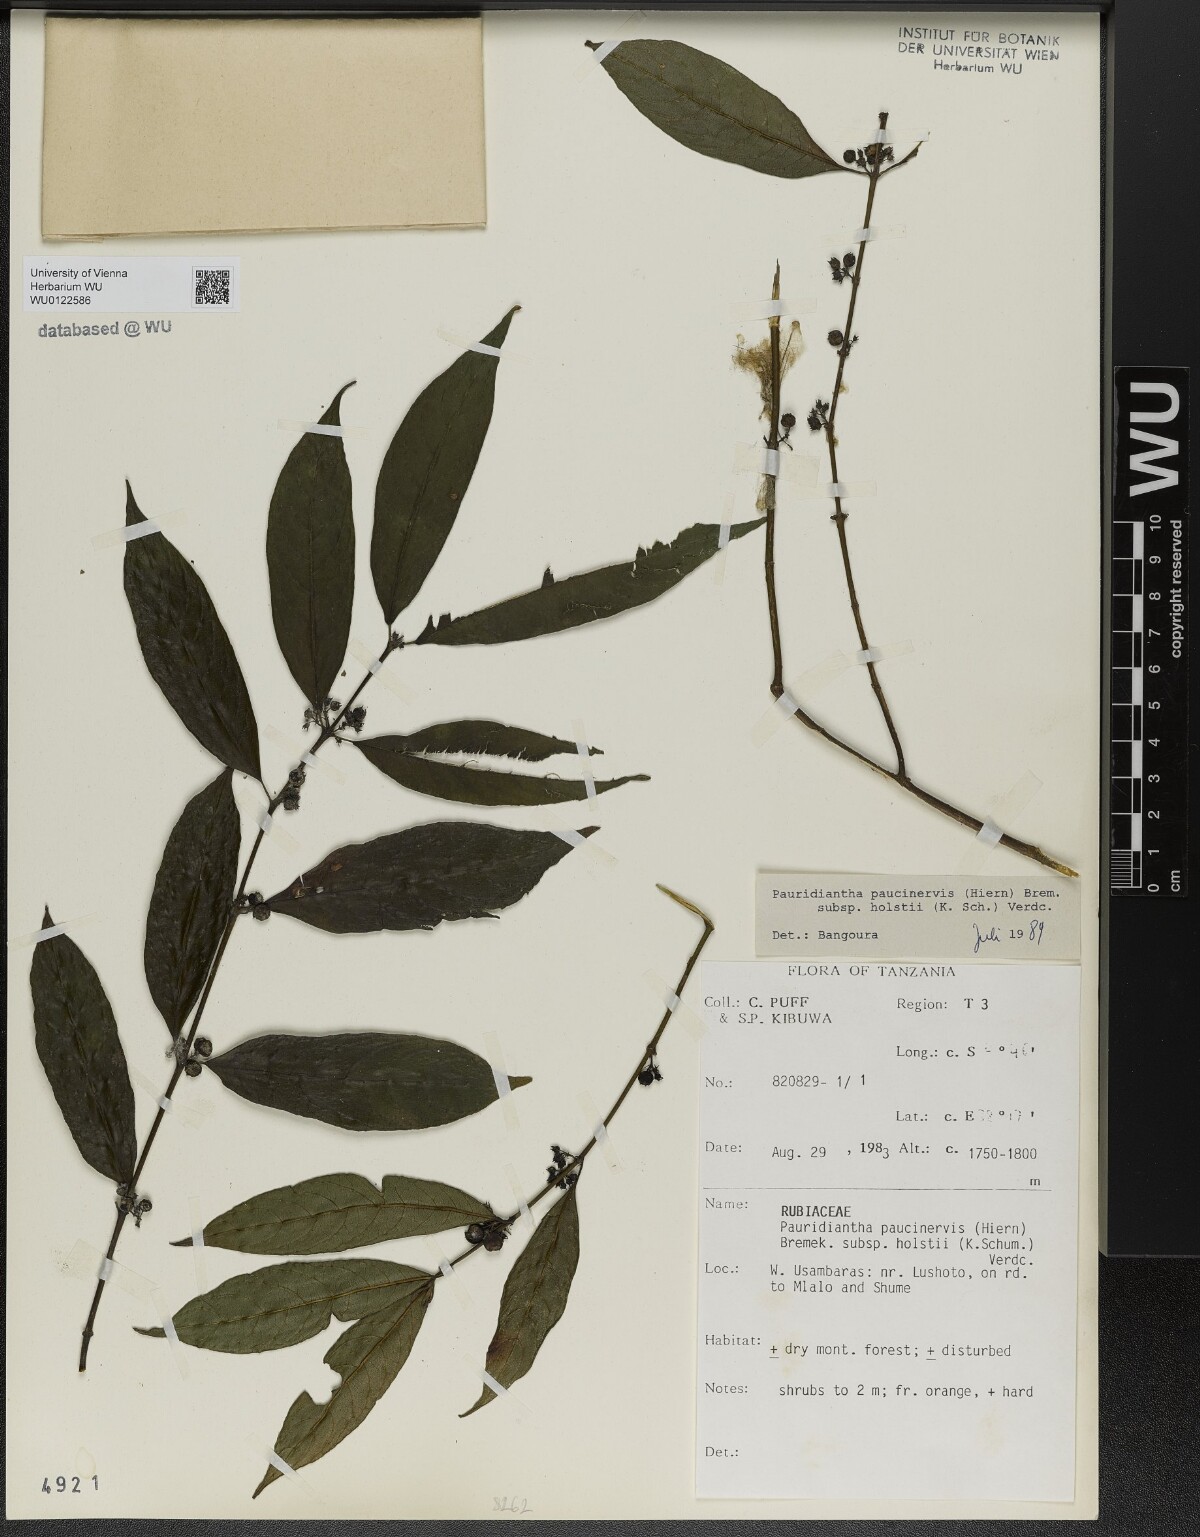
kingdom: Plantae
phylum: Tracheophyta
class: Magnoliopsida
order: Gentianales
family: Rubiaceae
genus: Pauridiantha
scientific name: Pauridiantha paucinervis
